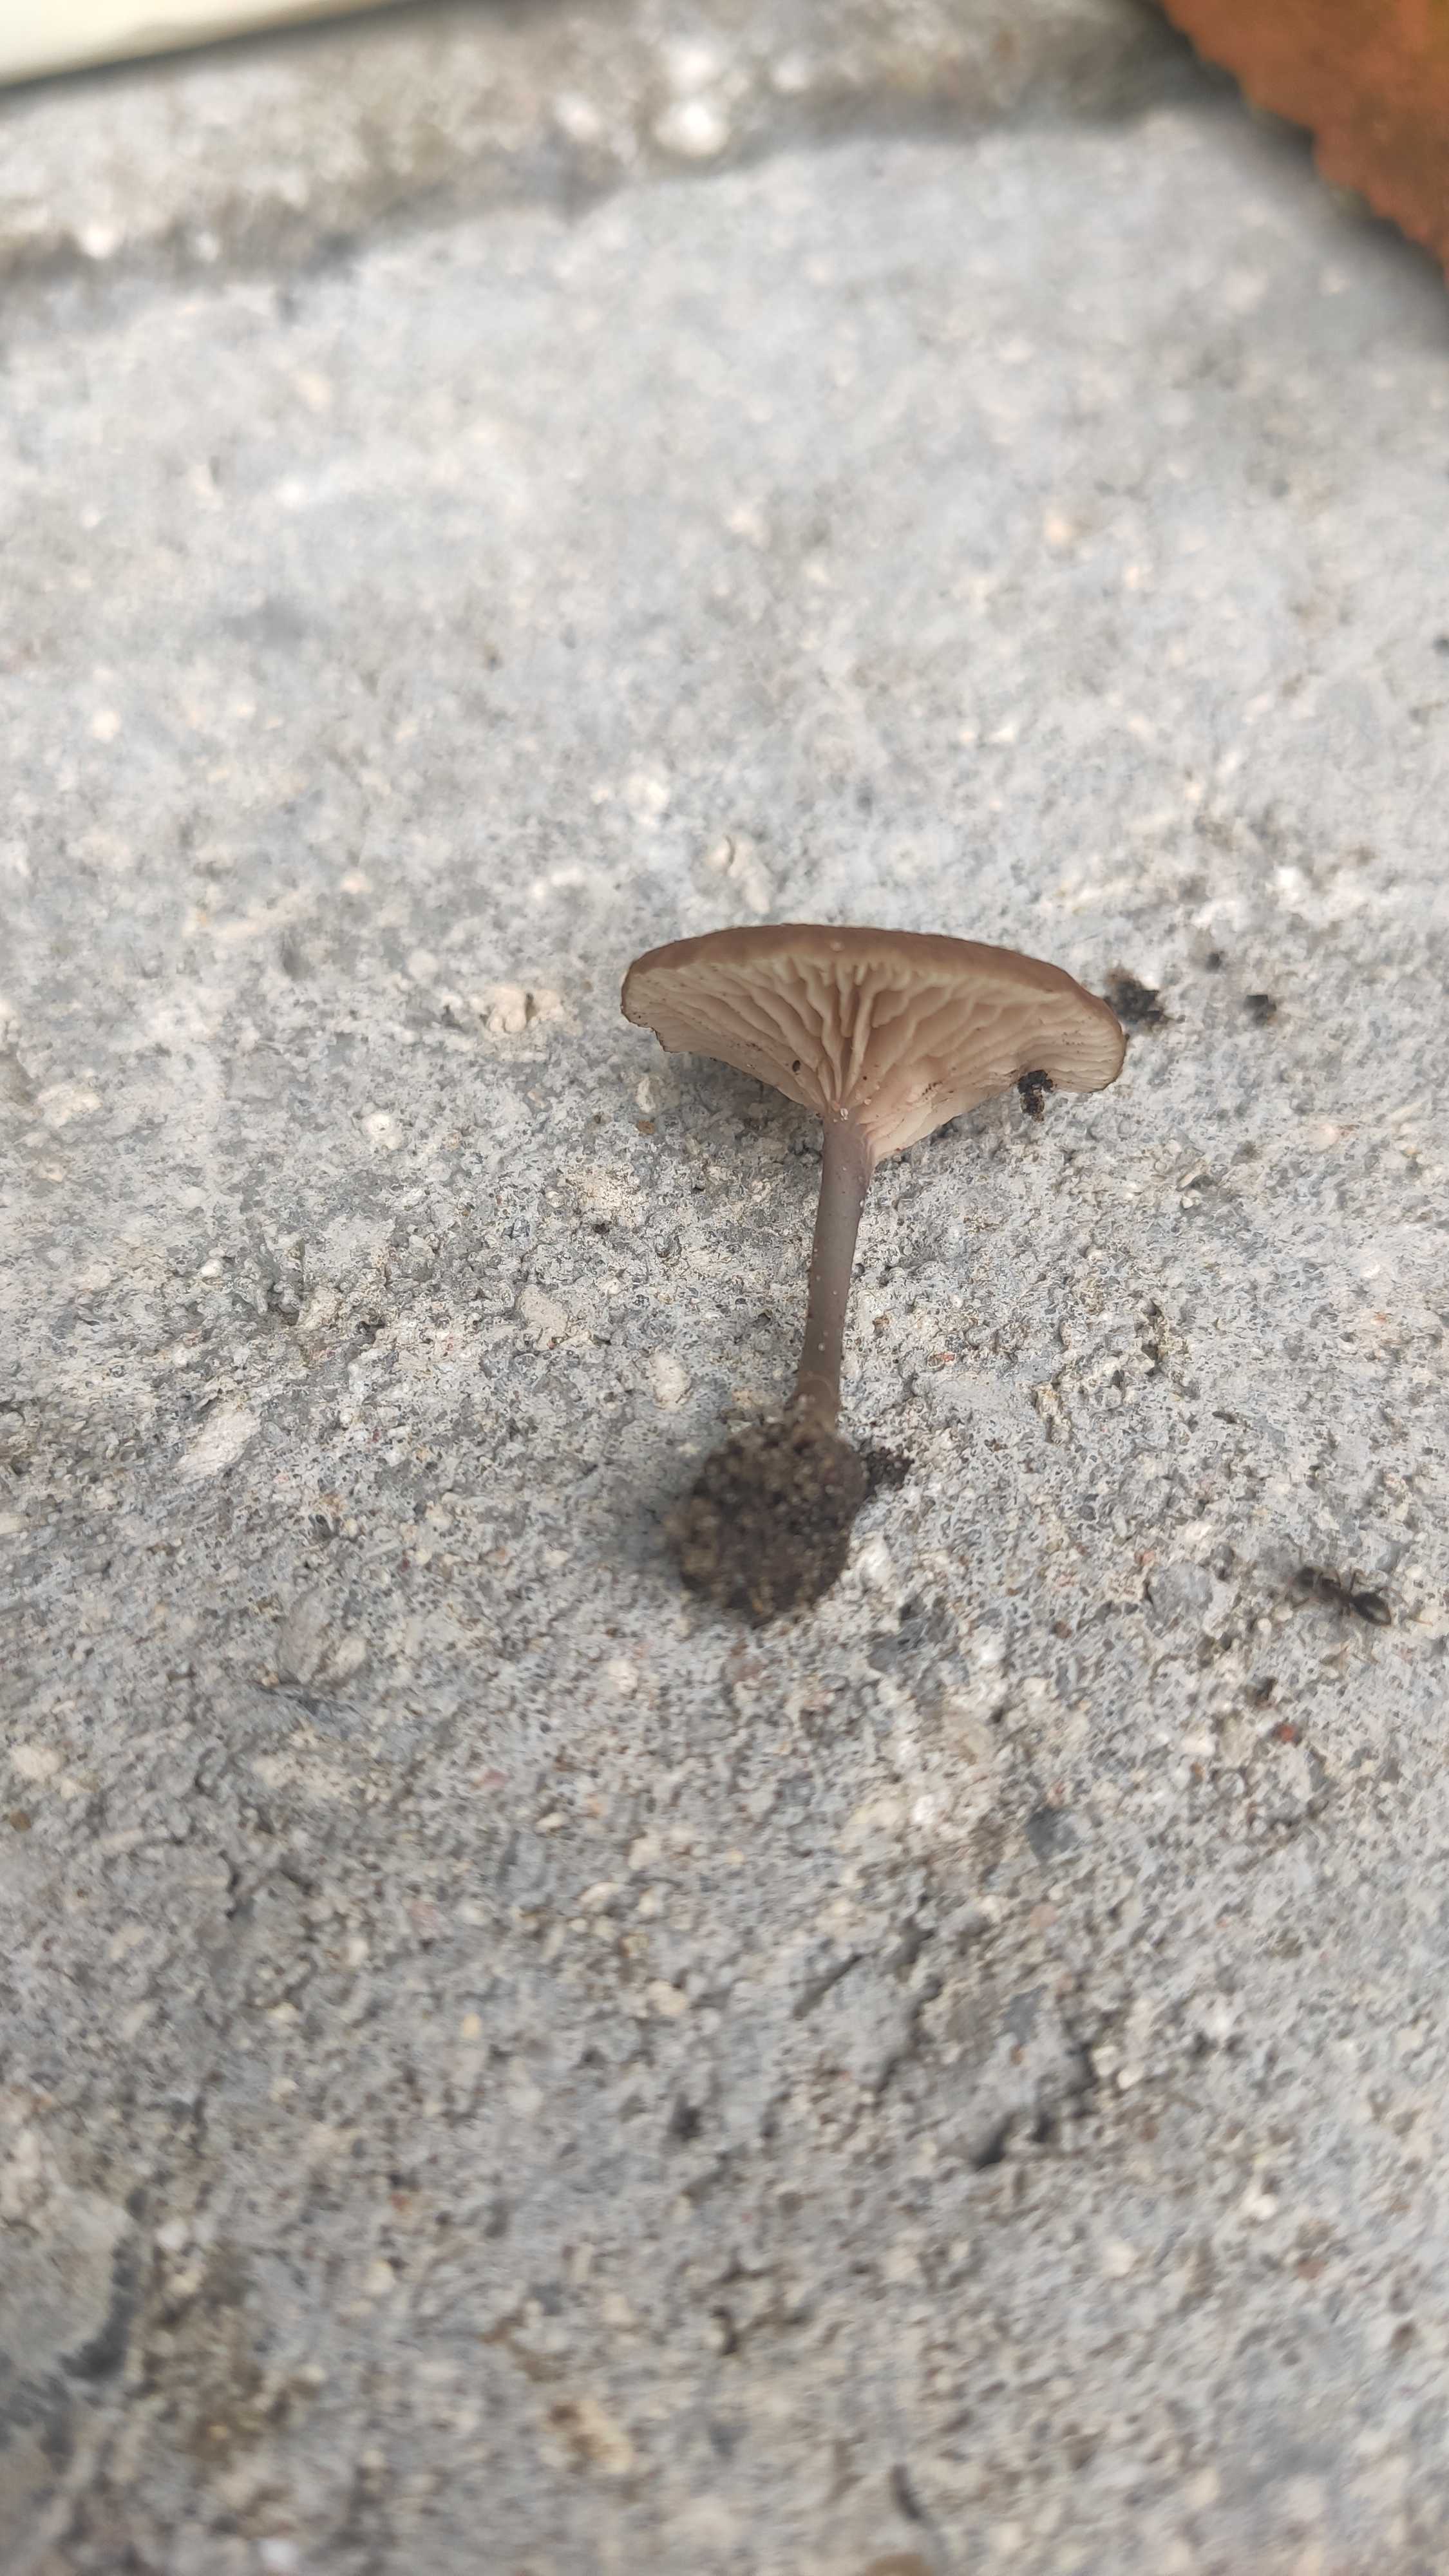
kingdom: Fungi
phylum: Basidiomycota
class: Agaricomycetes
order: Agaricales
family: Entolomataceae
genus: Entoloma
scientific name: Entoloma incarnatofuscescens
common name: tragt-rødblad
